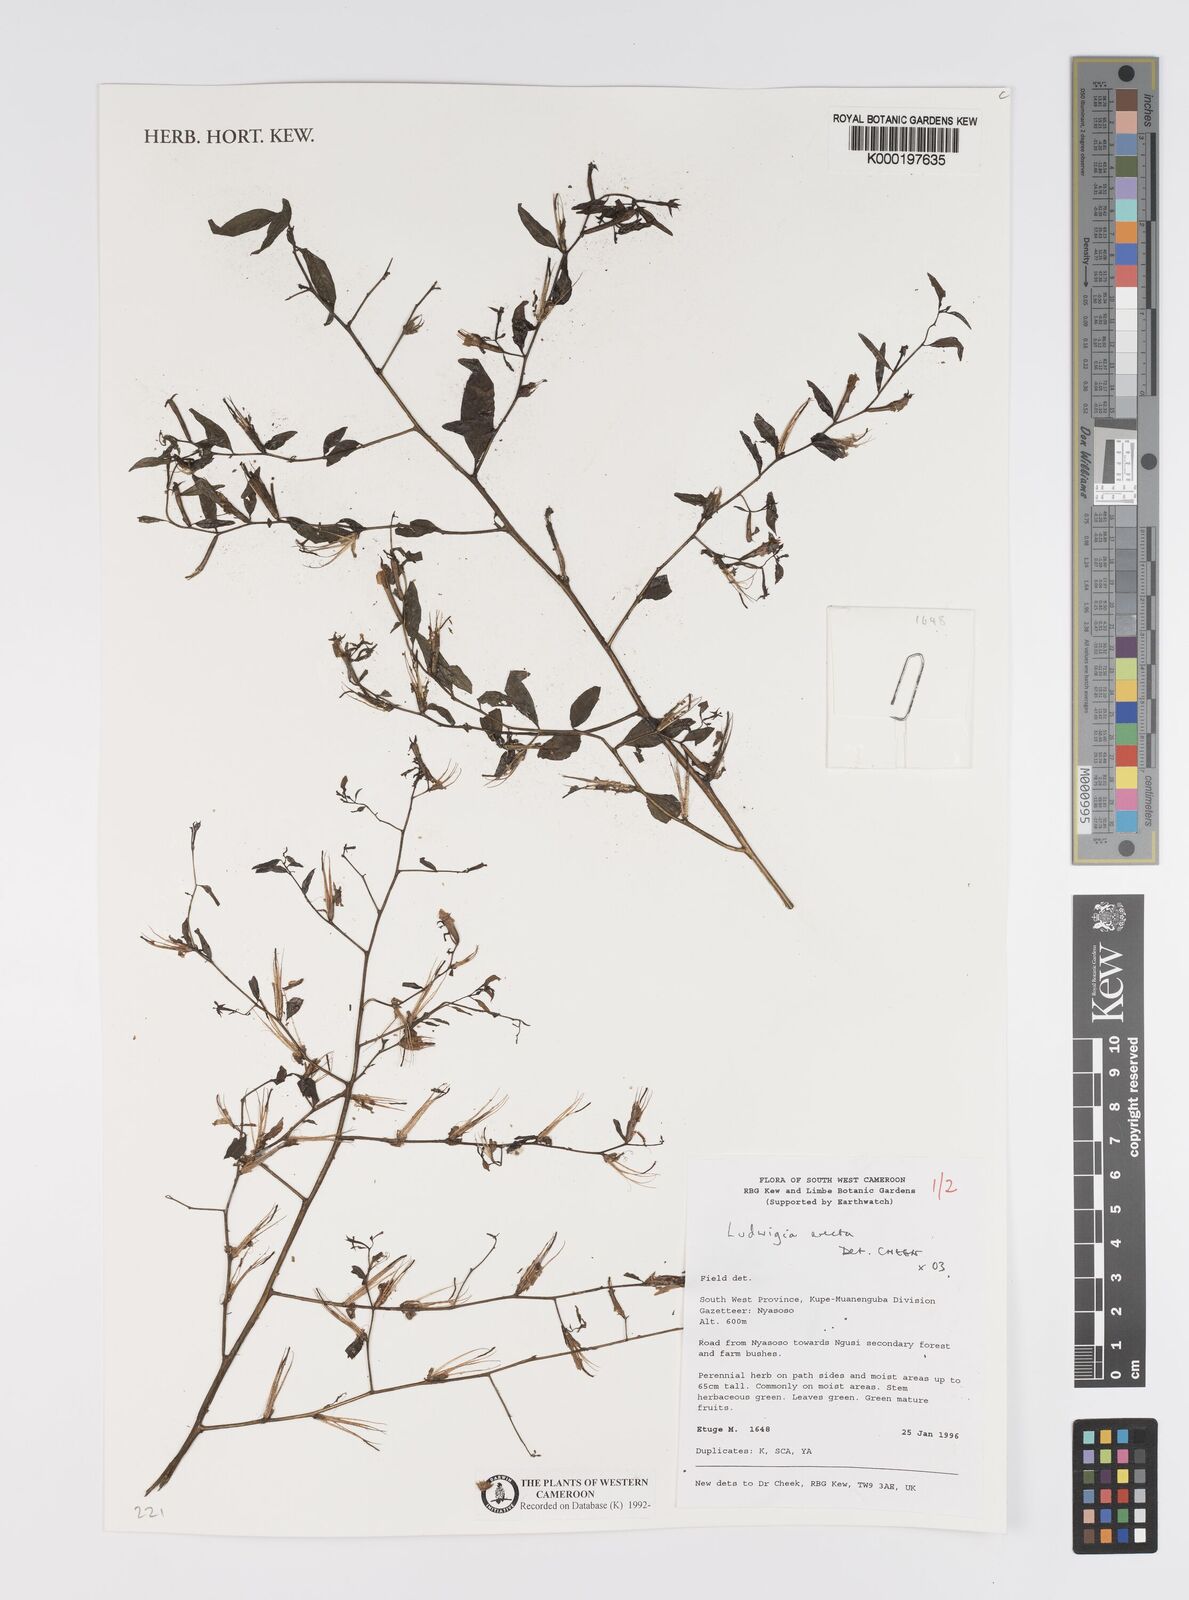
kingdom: Plantae
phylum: Tracheophyta
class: Magnoliopsida
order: Myrtales
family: Onagraceae
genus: Ludwigia
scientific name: Ludwigia erecta
